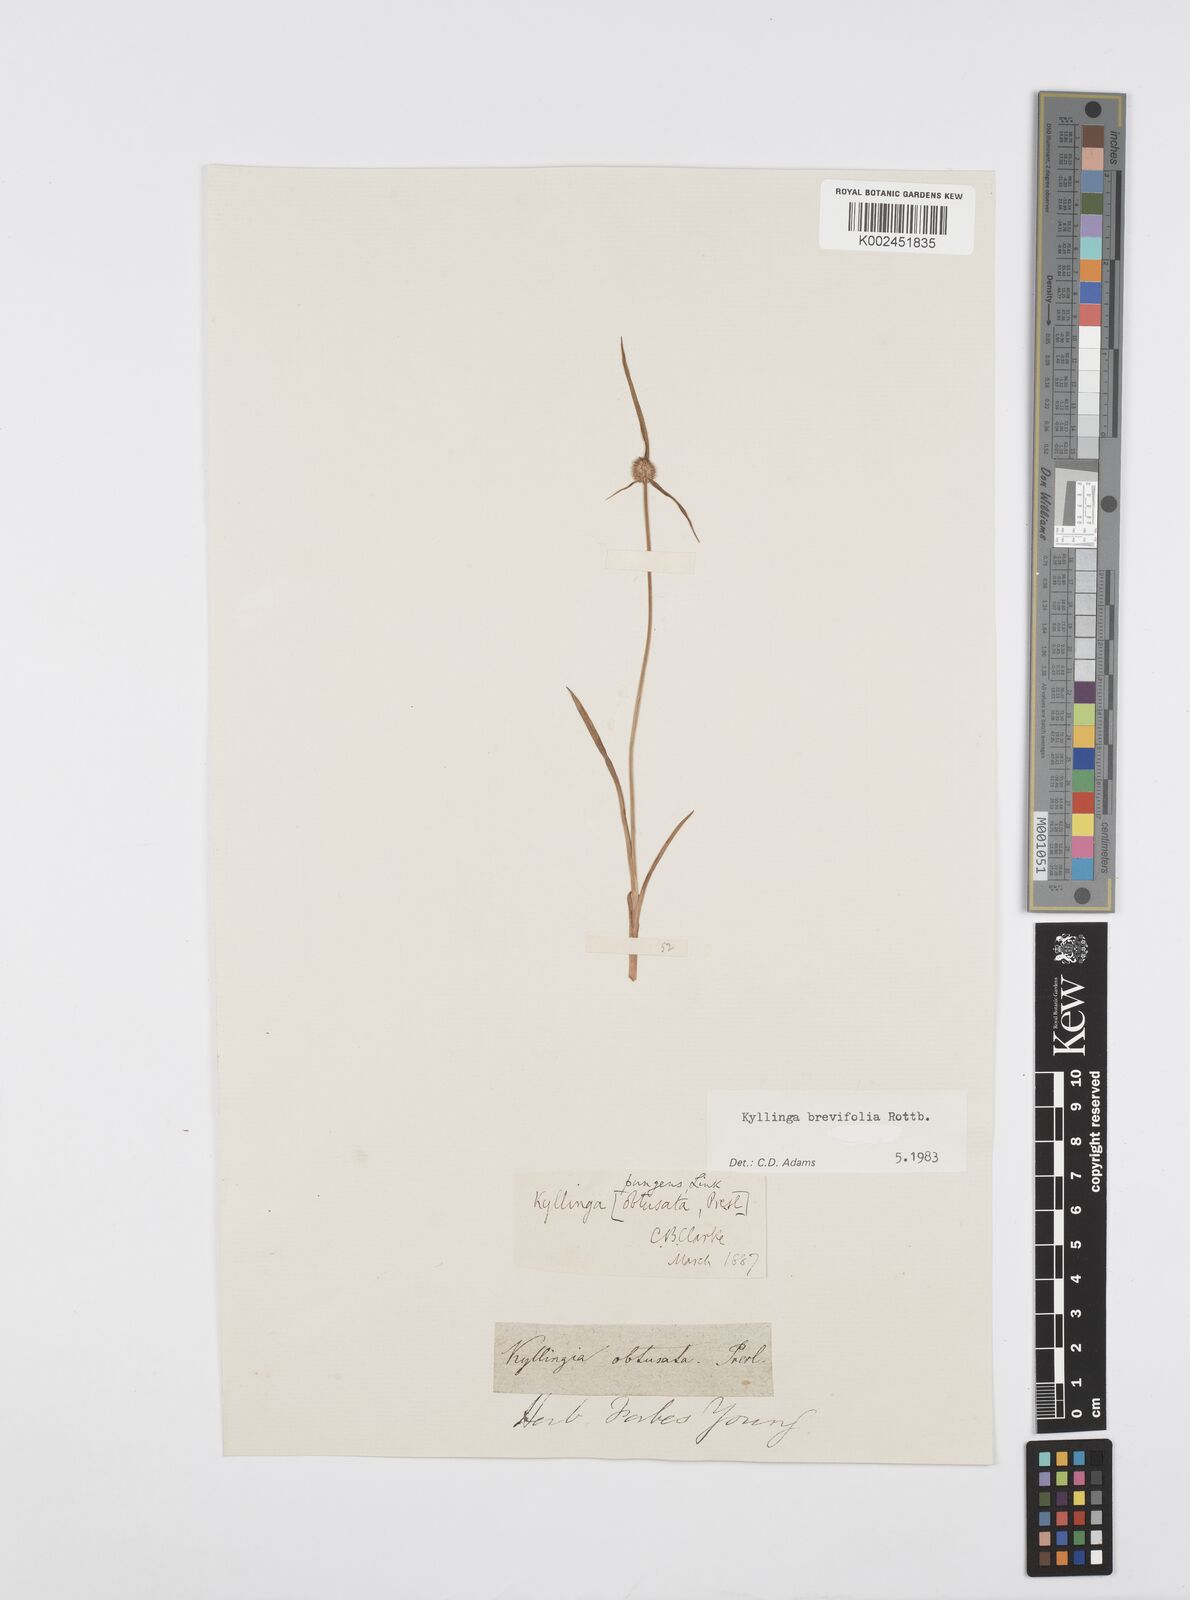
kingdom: Plantae
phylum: Tracheophyta
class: Liliopsida
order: Poales
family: Cyperaceae
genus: Cyperus
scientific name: Cyperus brevifolius
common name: Globe kyllinga
